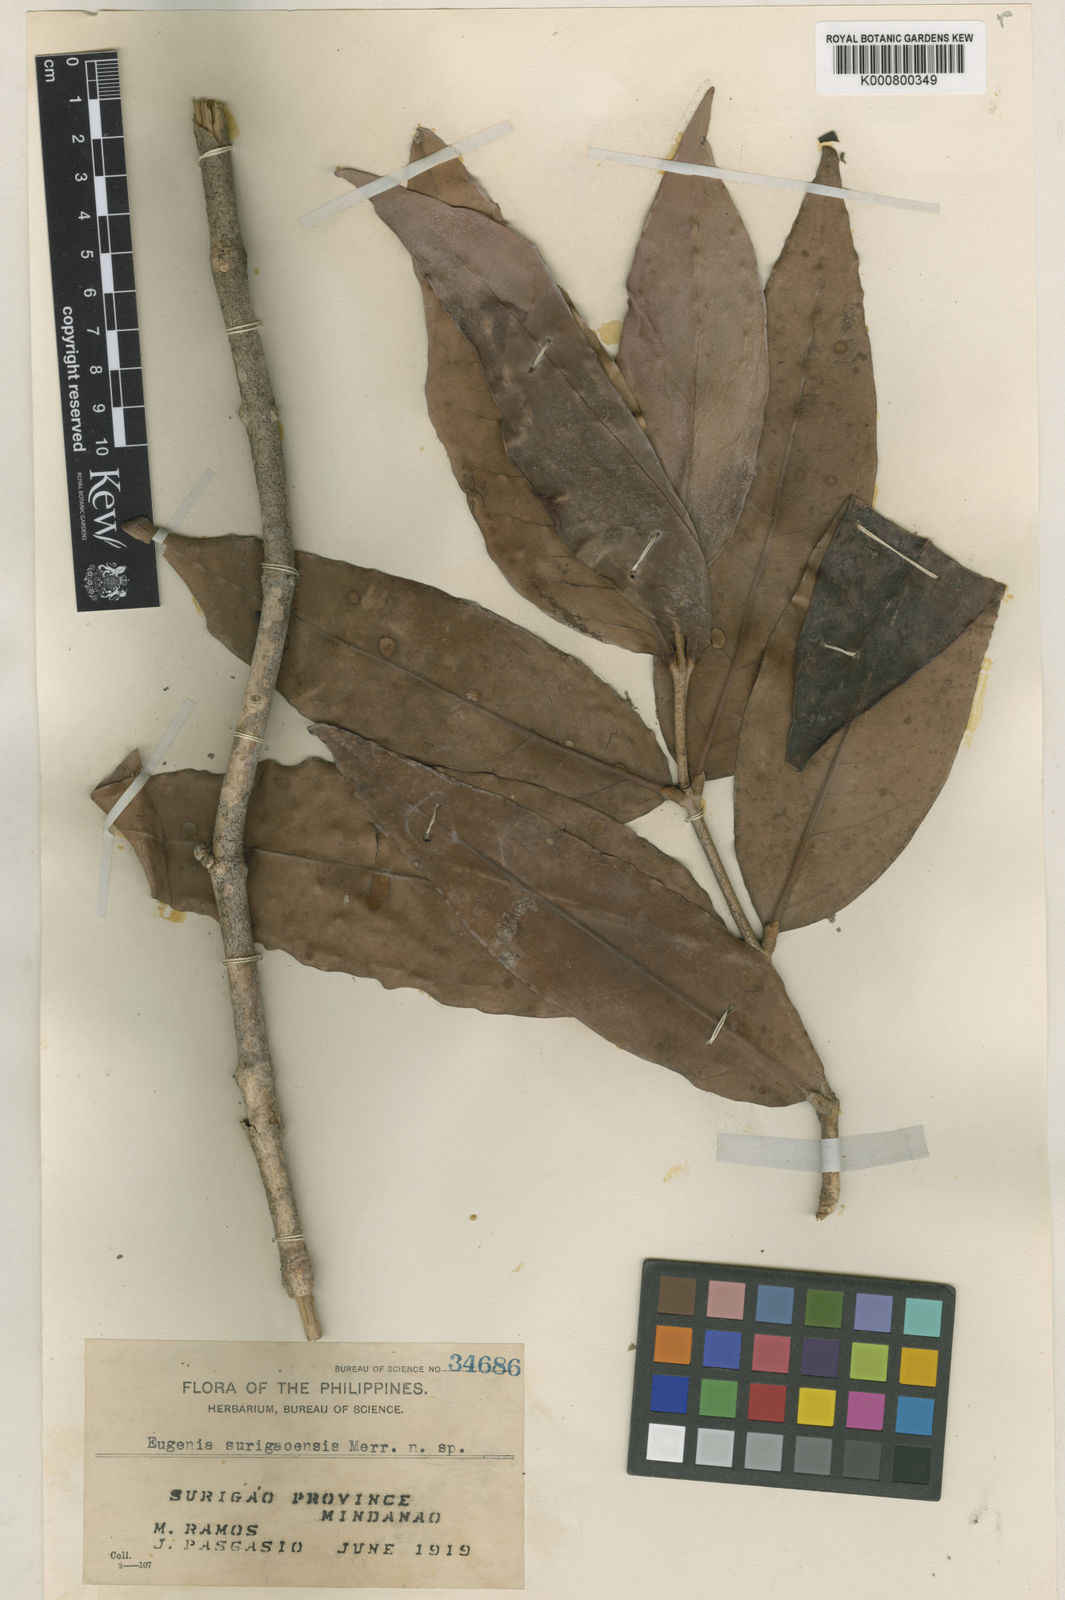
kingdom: Plantae
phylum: Tracheophyta
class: Magnoliopsida
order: Myrtales
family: Myrtaceae
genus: Syzygium
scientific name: Syzygium surigaense
